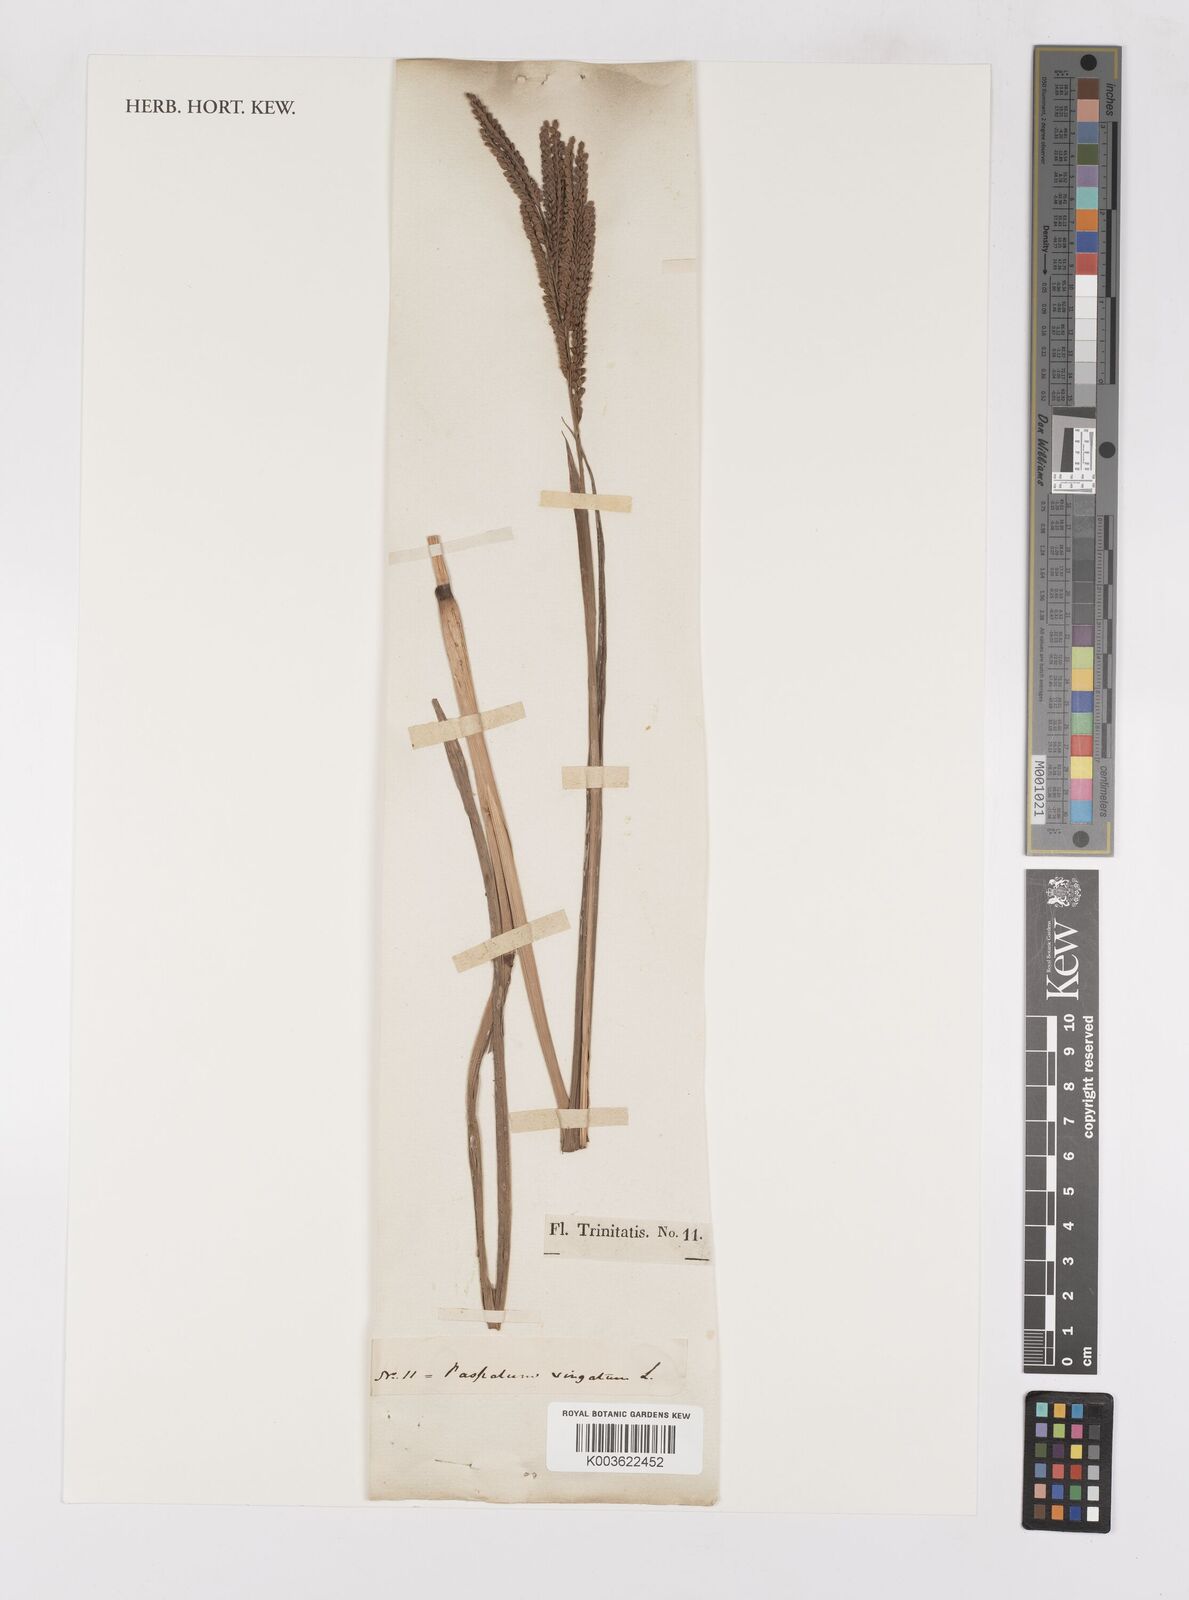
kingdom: Plantae
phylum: Tracheophyta
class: Liliopsida
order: Poales
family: Poaceae
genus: Paspalum
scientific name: Paspalum virgatum
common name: Talquezal
